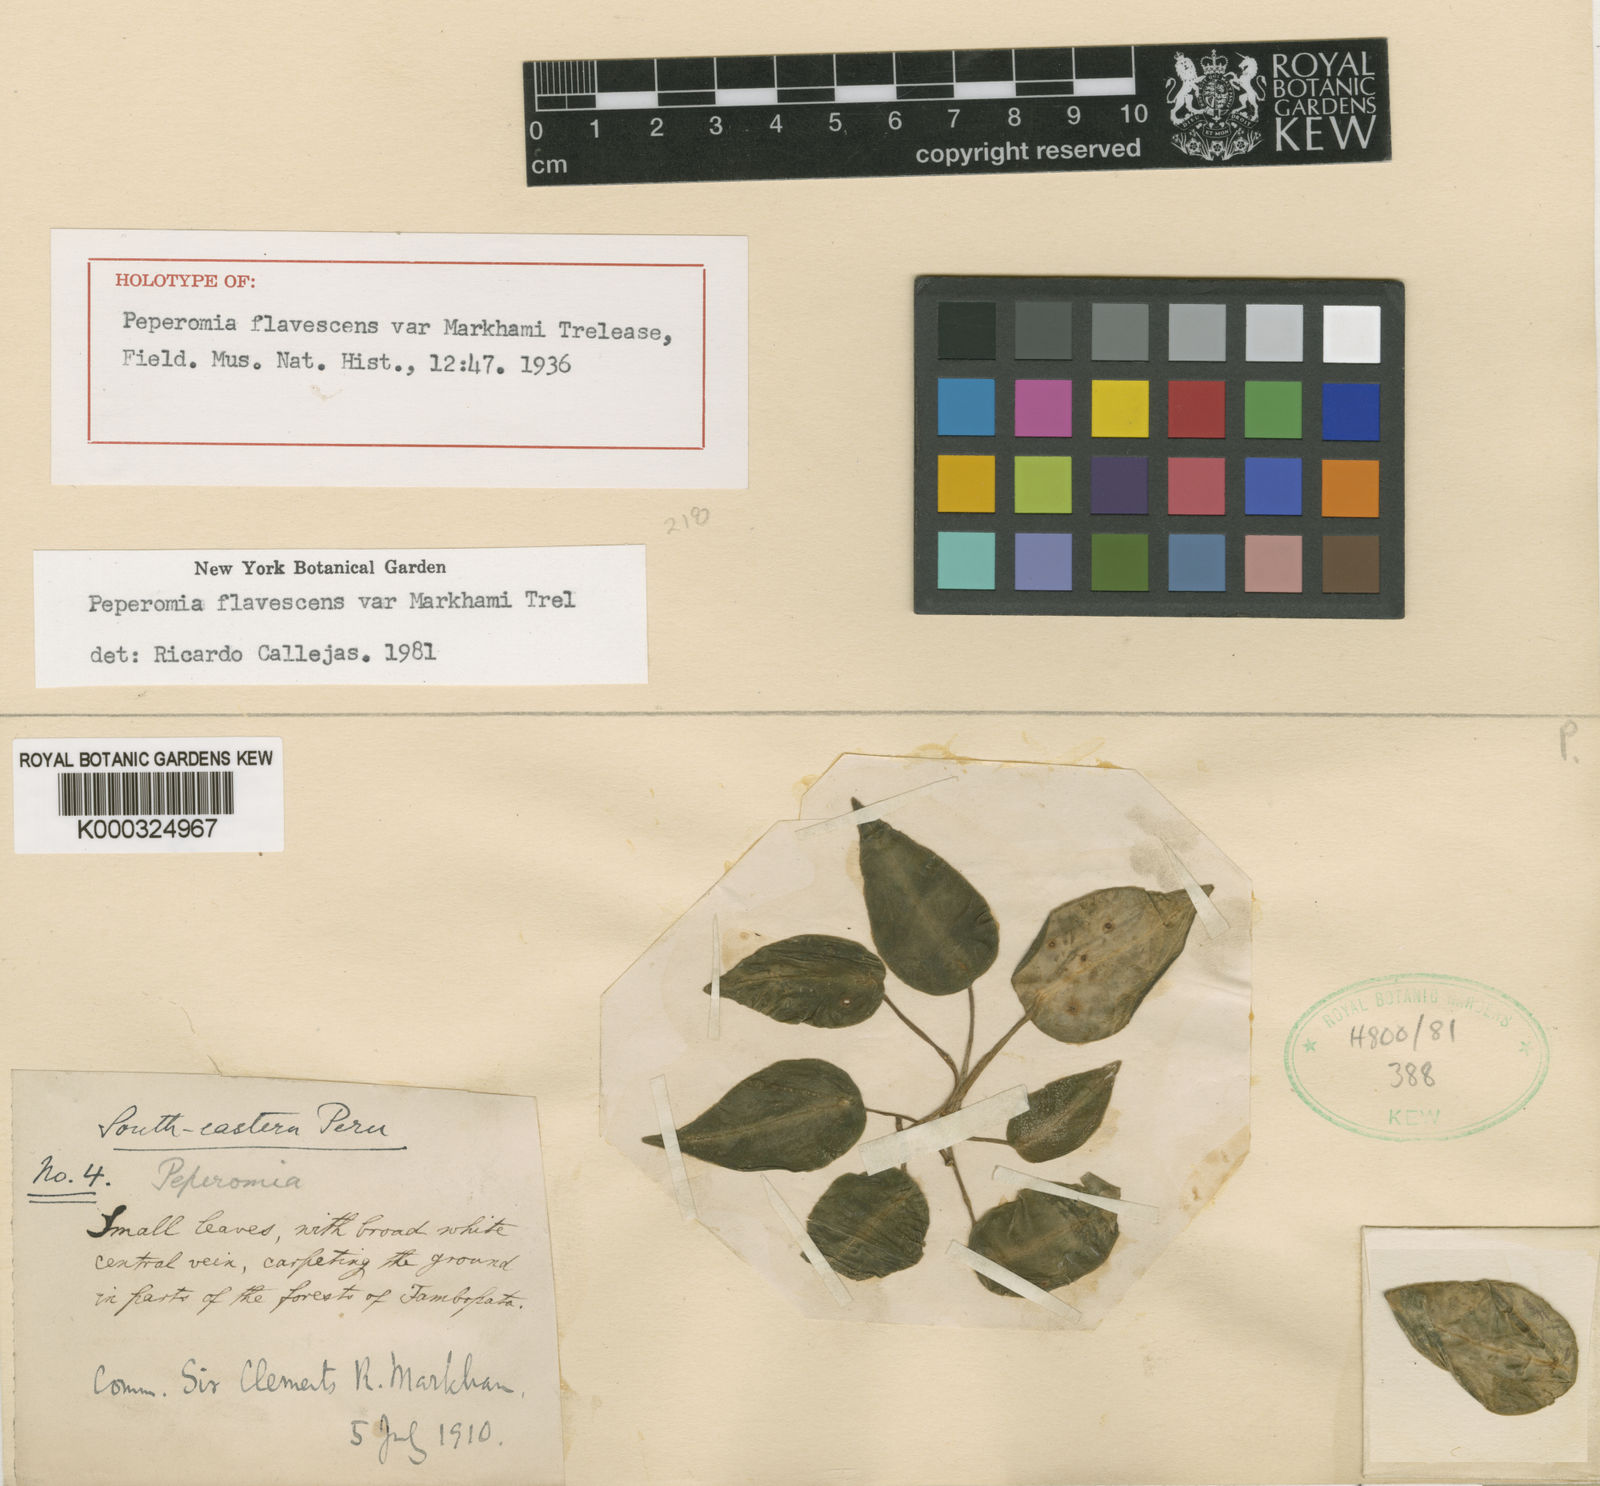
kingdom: Plantae
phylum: Tracheophyta
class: Magnoliopsida
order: Piperales
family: Piperaceae
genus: Peperomia
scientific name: Peperomia flavescens
